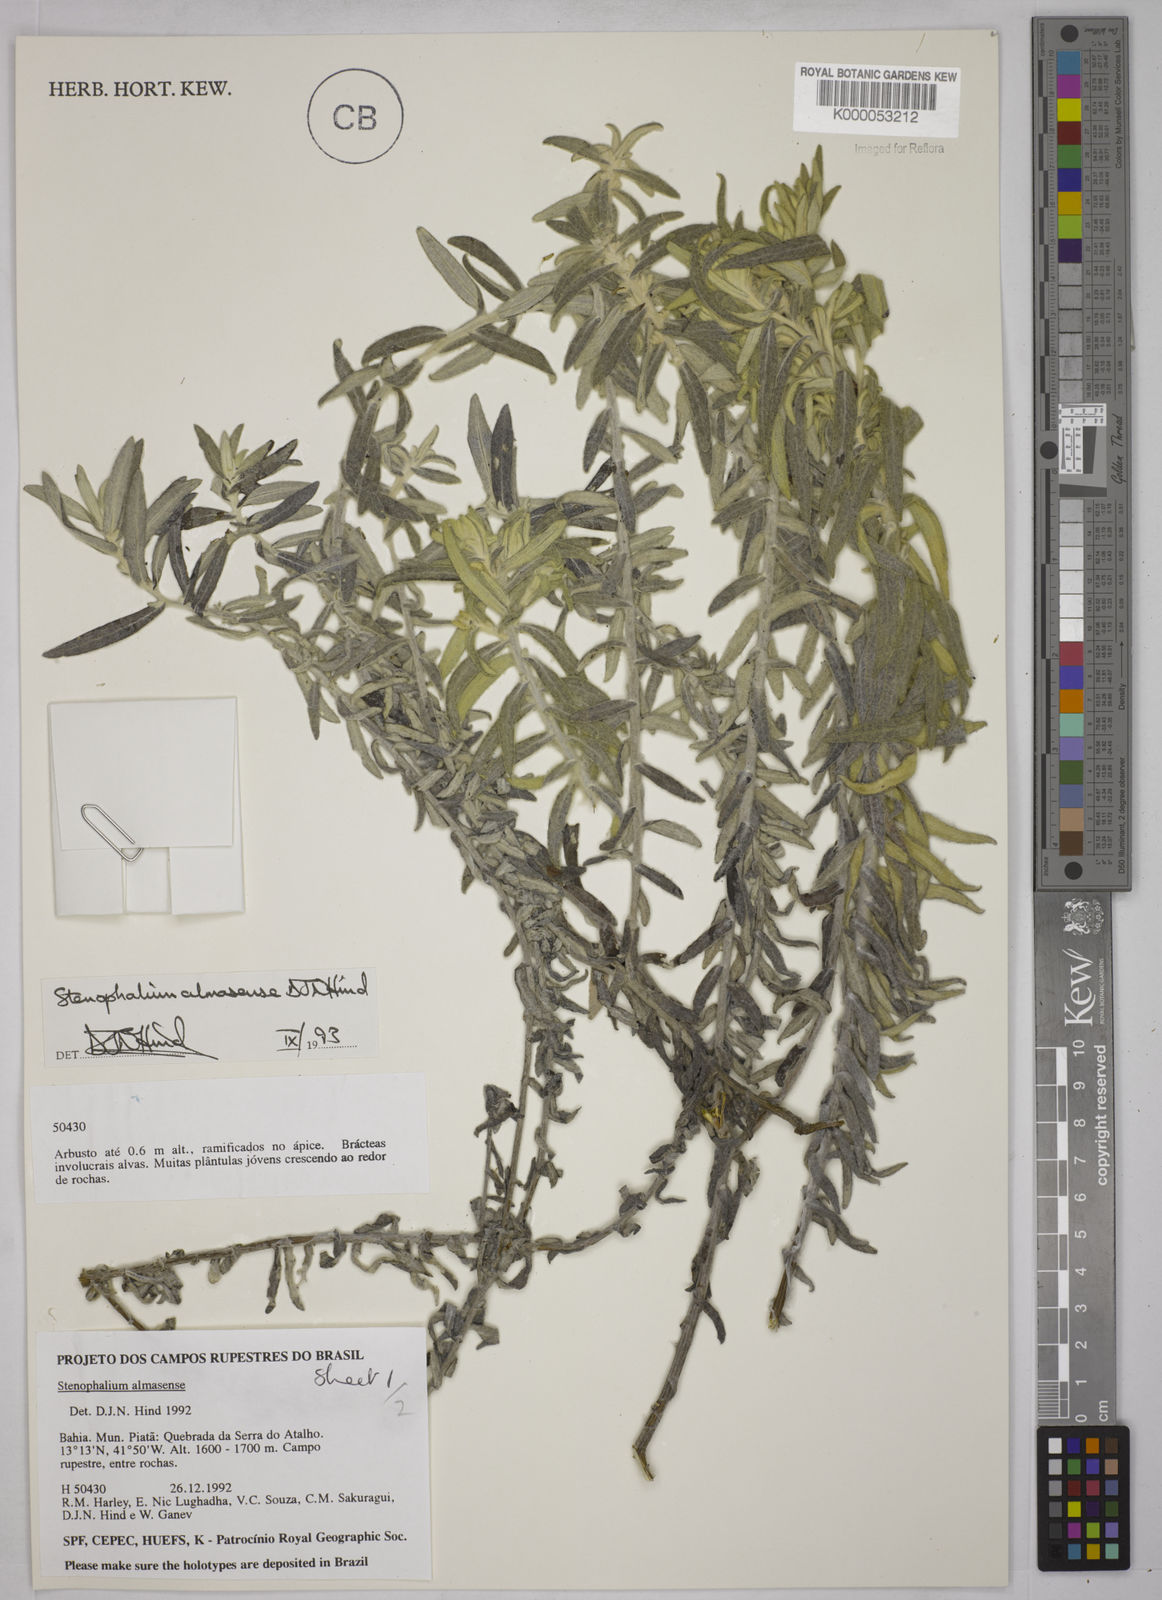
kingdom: Plantae
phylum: Tracheophyta
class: Magnoliopsida
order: Asterales
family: Asteraceae
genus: Achyrocline
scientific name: Achyrocline eriodes
